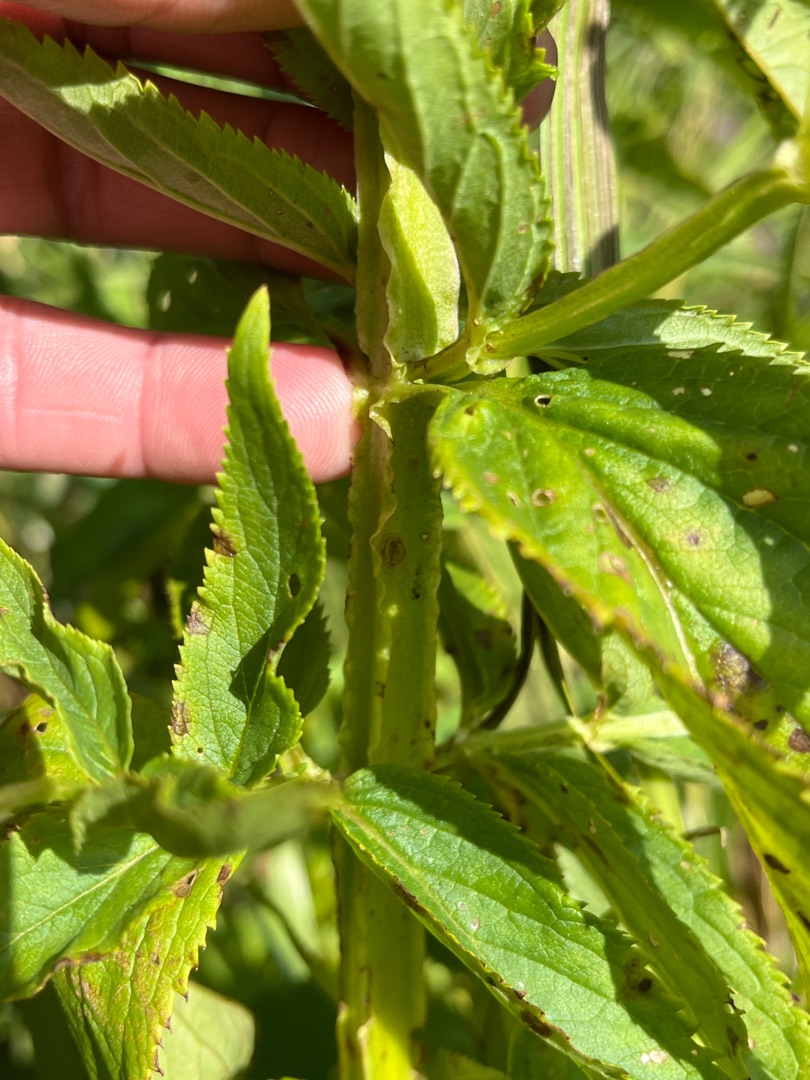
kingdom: Plantae
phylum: Tracheophyta
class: Magnoliopsida
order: Lamiales
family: Scrophulariaceae
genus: Scrophularia
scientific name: Scrophularia umbrosa
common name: Vand-brunrod
